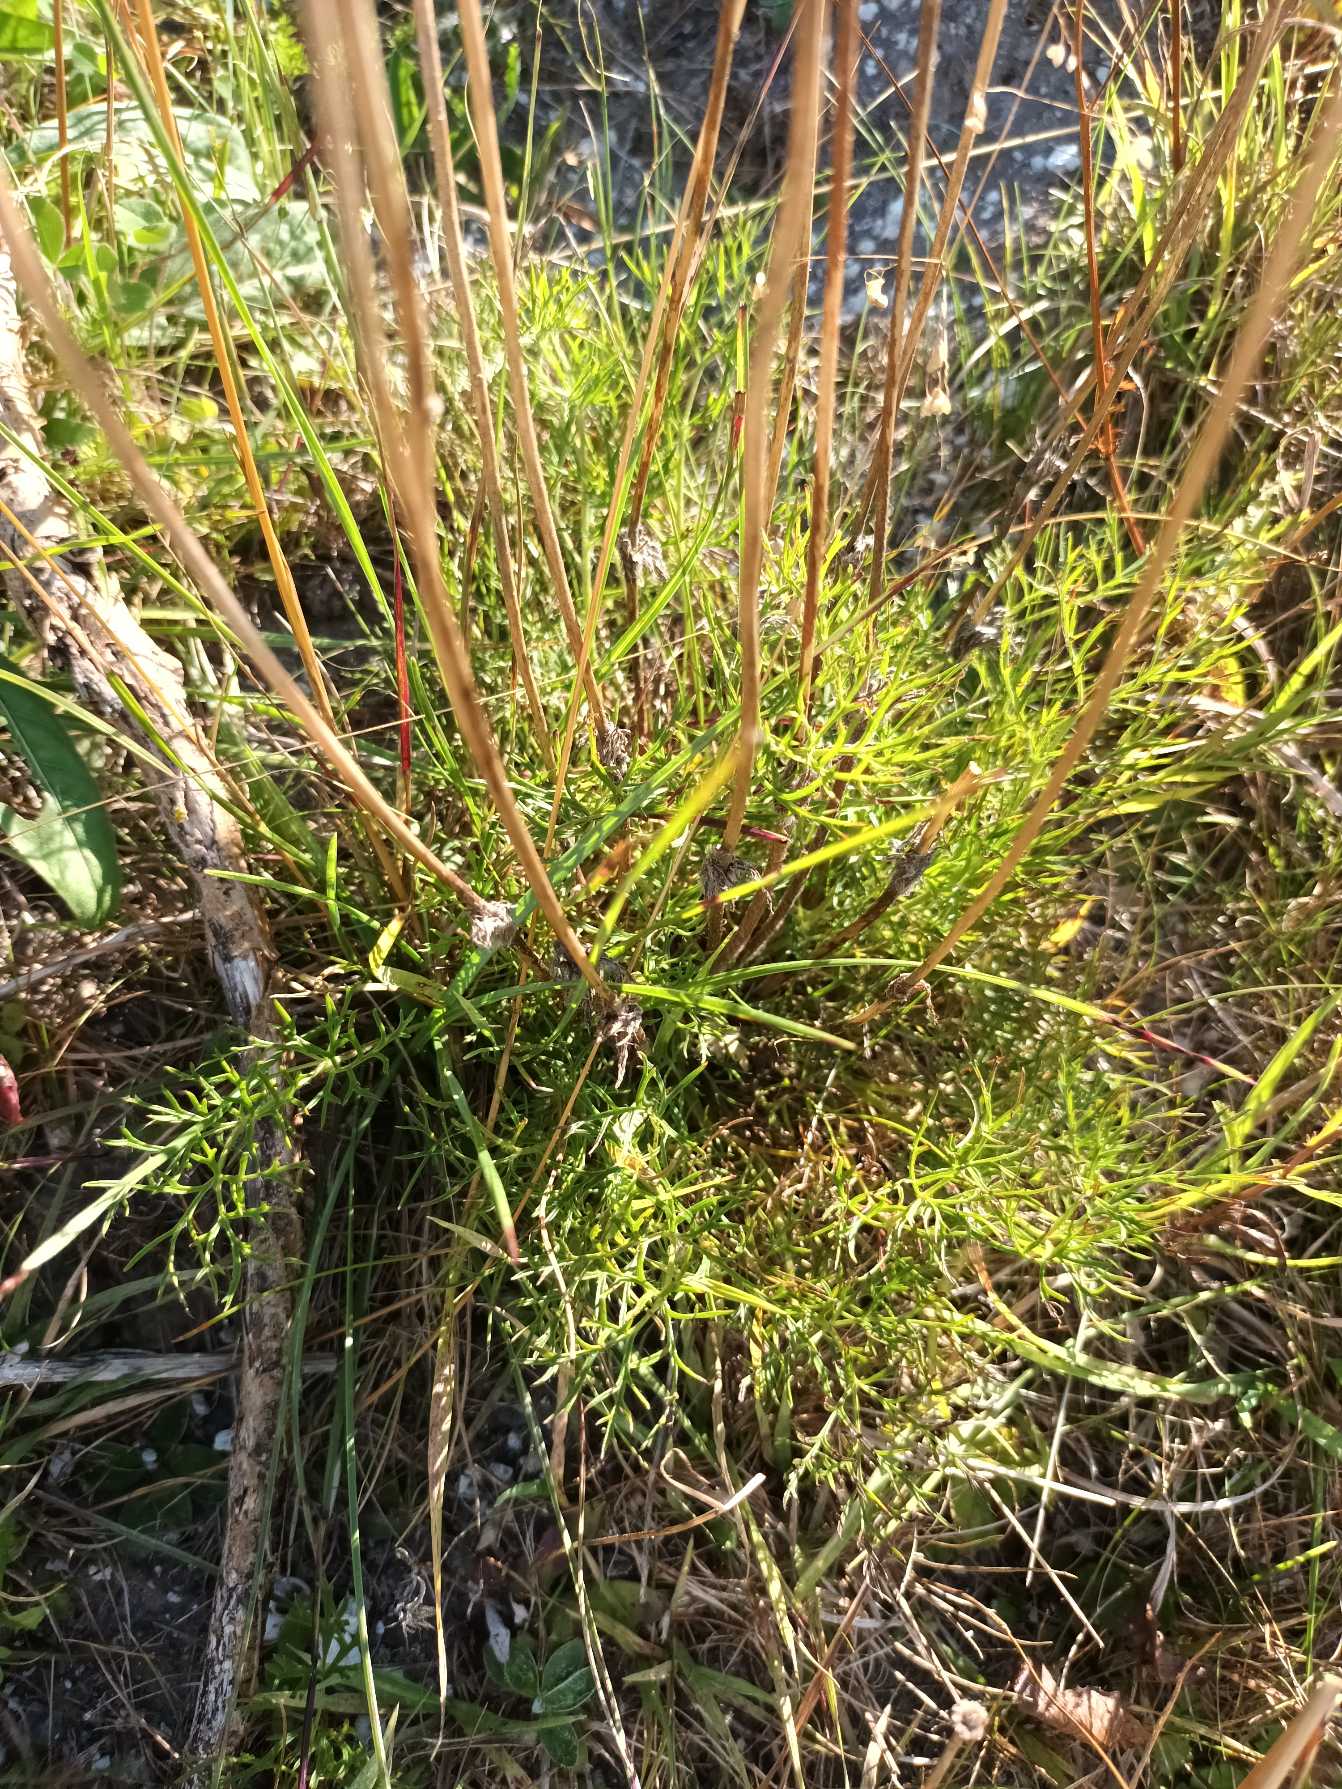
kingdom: Plantae
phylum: Tracheophyta
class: Magnoliopsida
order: Ranunculales
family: Ranunculaceae
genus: Pulsatilla
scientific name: Pulsatilla vulgaris
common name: Opret kobjælde
